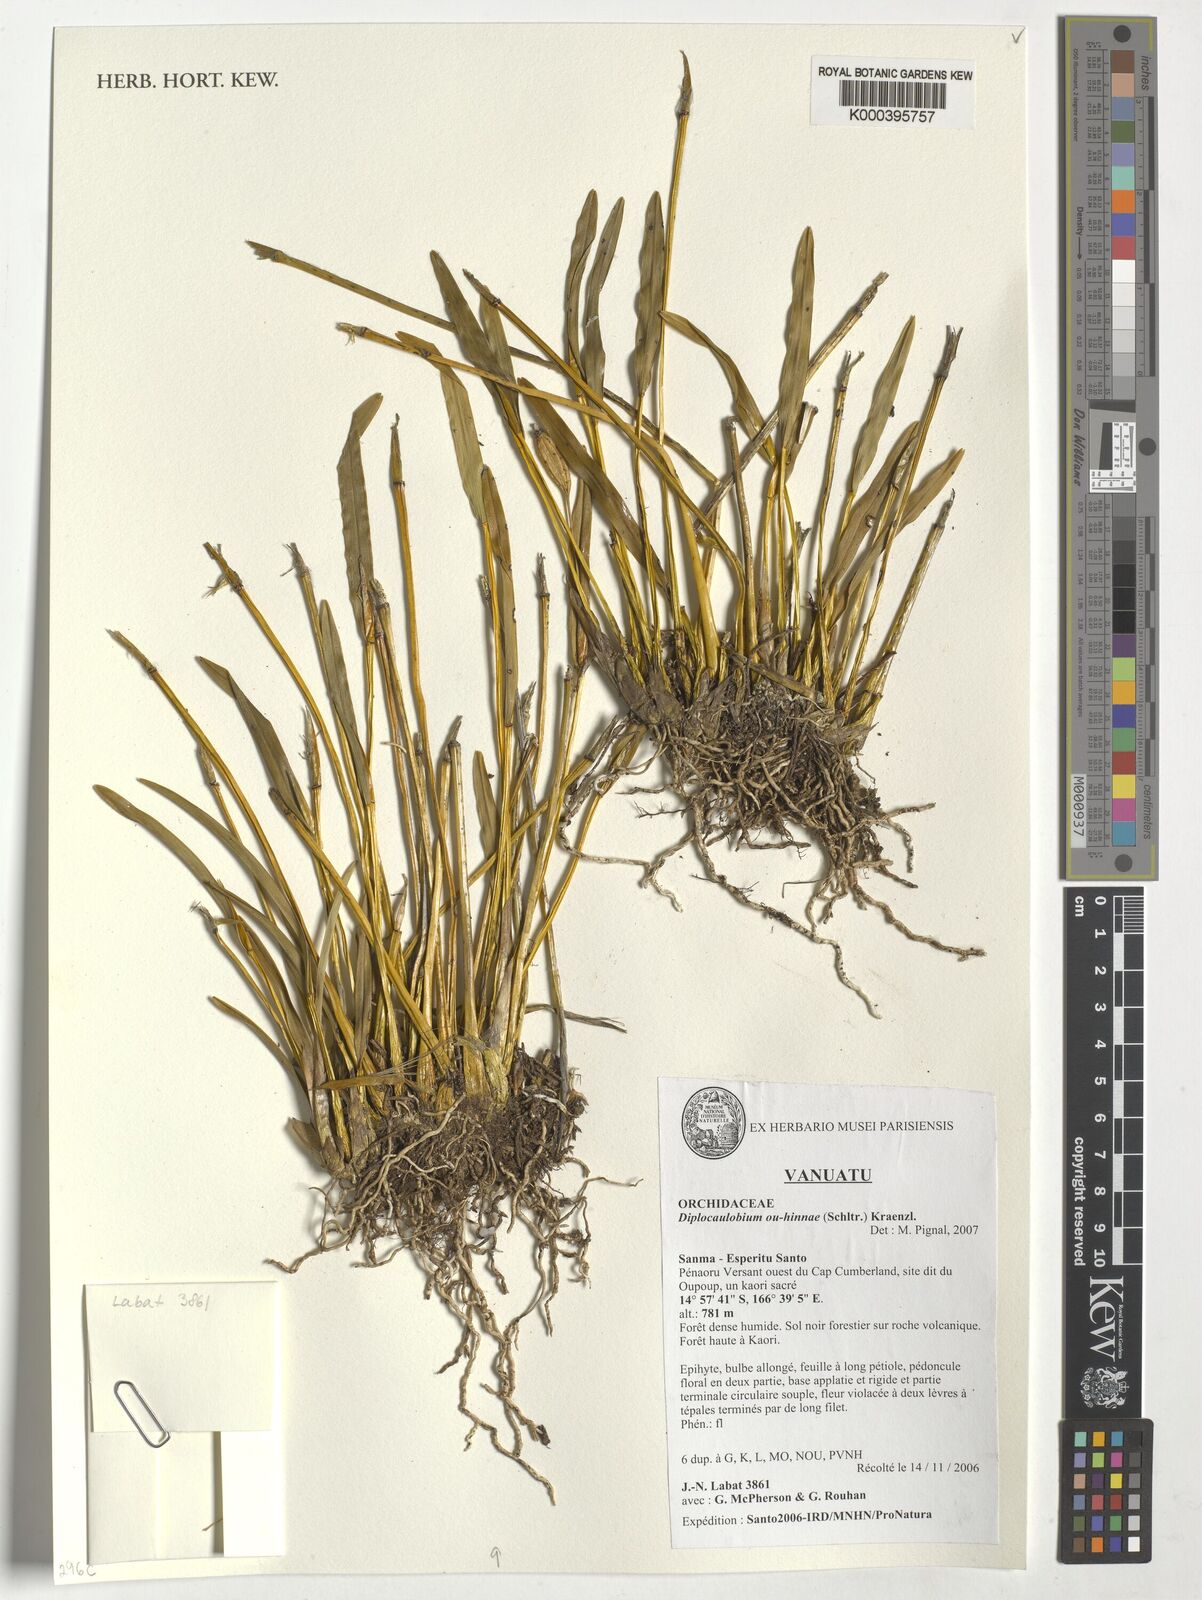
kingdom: Plantae
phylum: Tracheophyta
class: Liliopsida
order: Asparagales
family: Orchidaceae
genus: Dendrobium
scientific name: Dendrobium ou-hinnae
